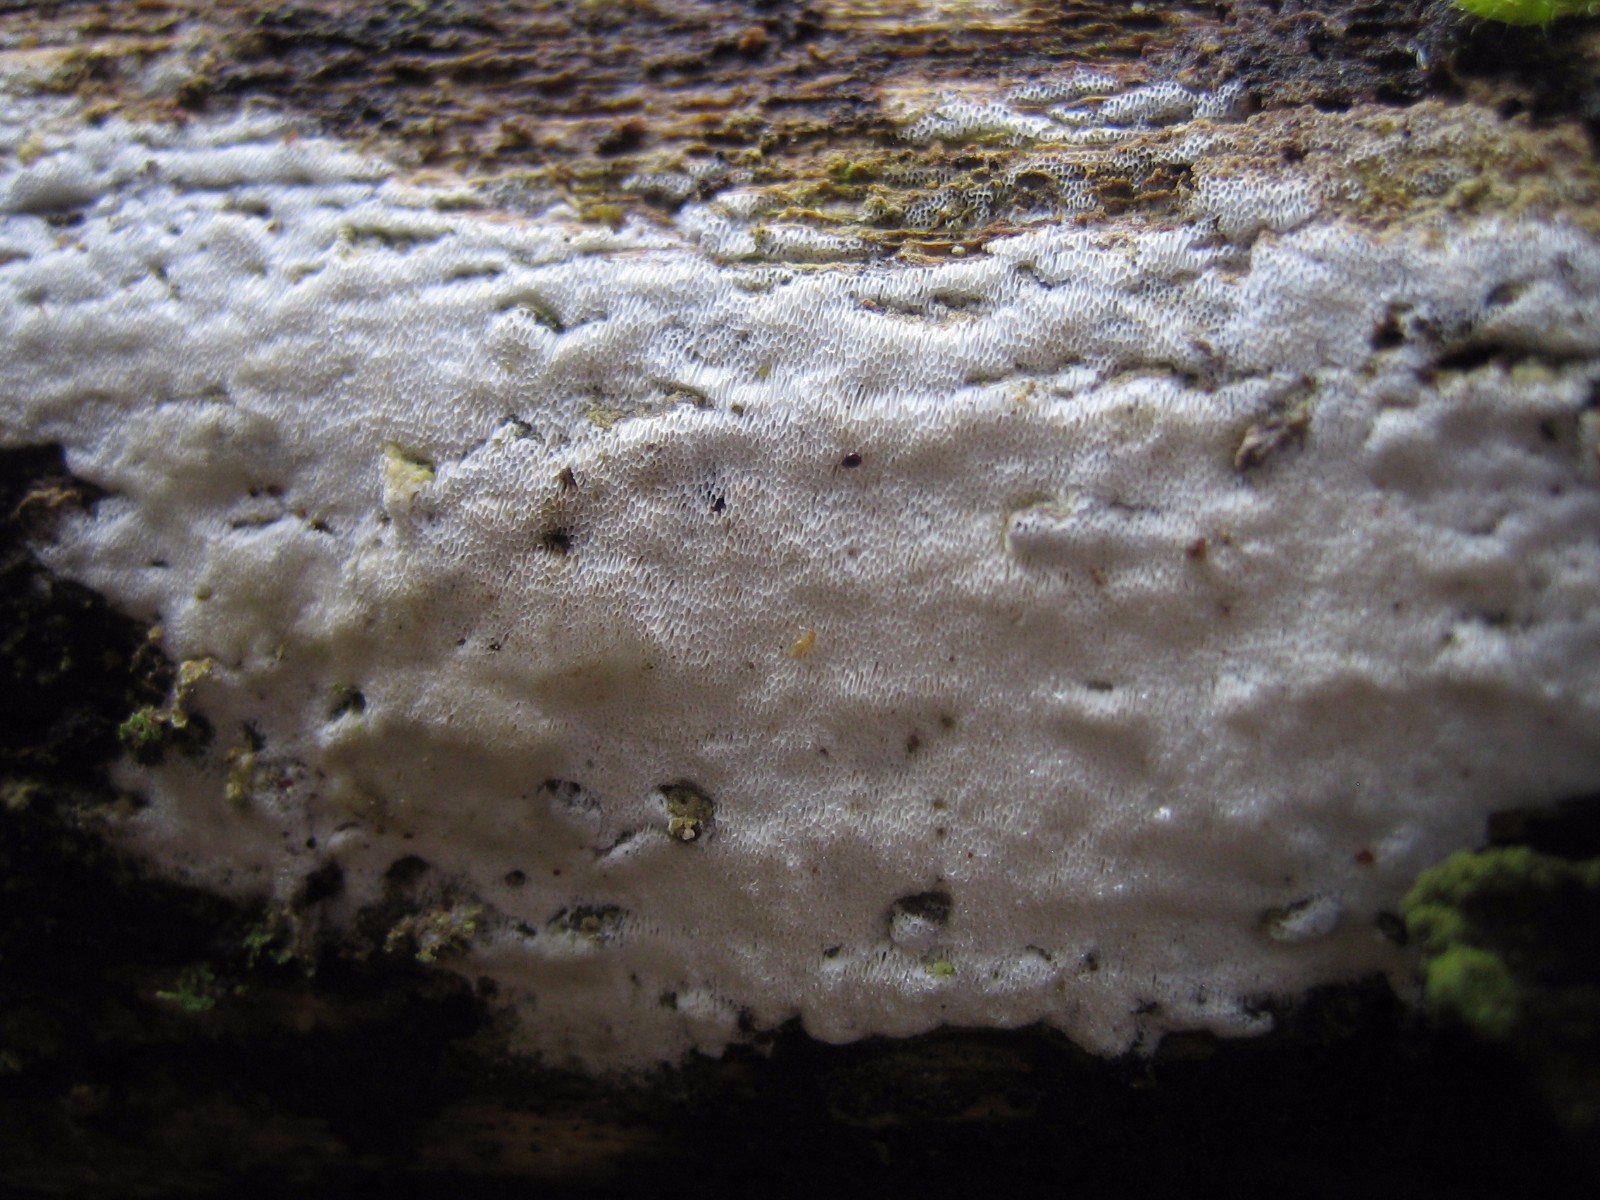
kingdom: Fungi
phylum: Basidiomycota
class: Agaricomycetes
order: Polyporales
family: Fomitopsidaceae
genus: Neoantrodia
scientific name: Neoantrodia serialis
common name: række-sejporesvamp
